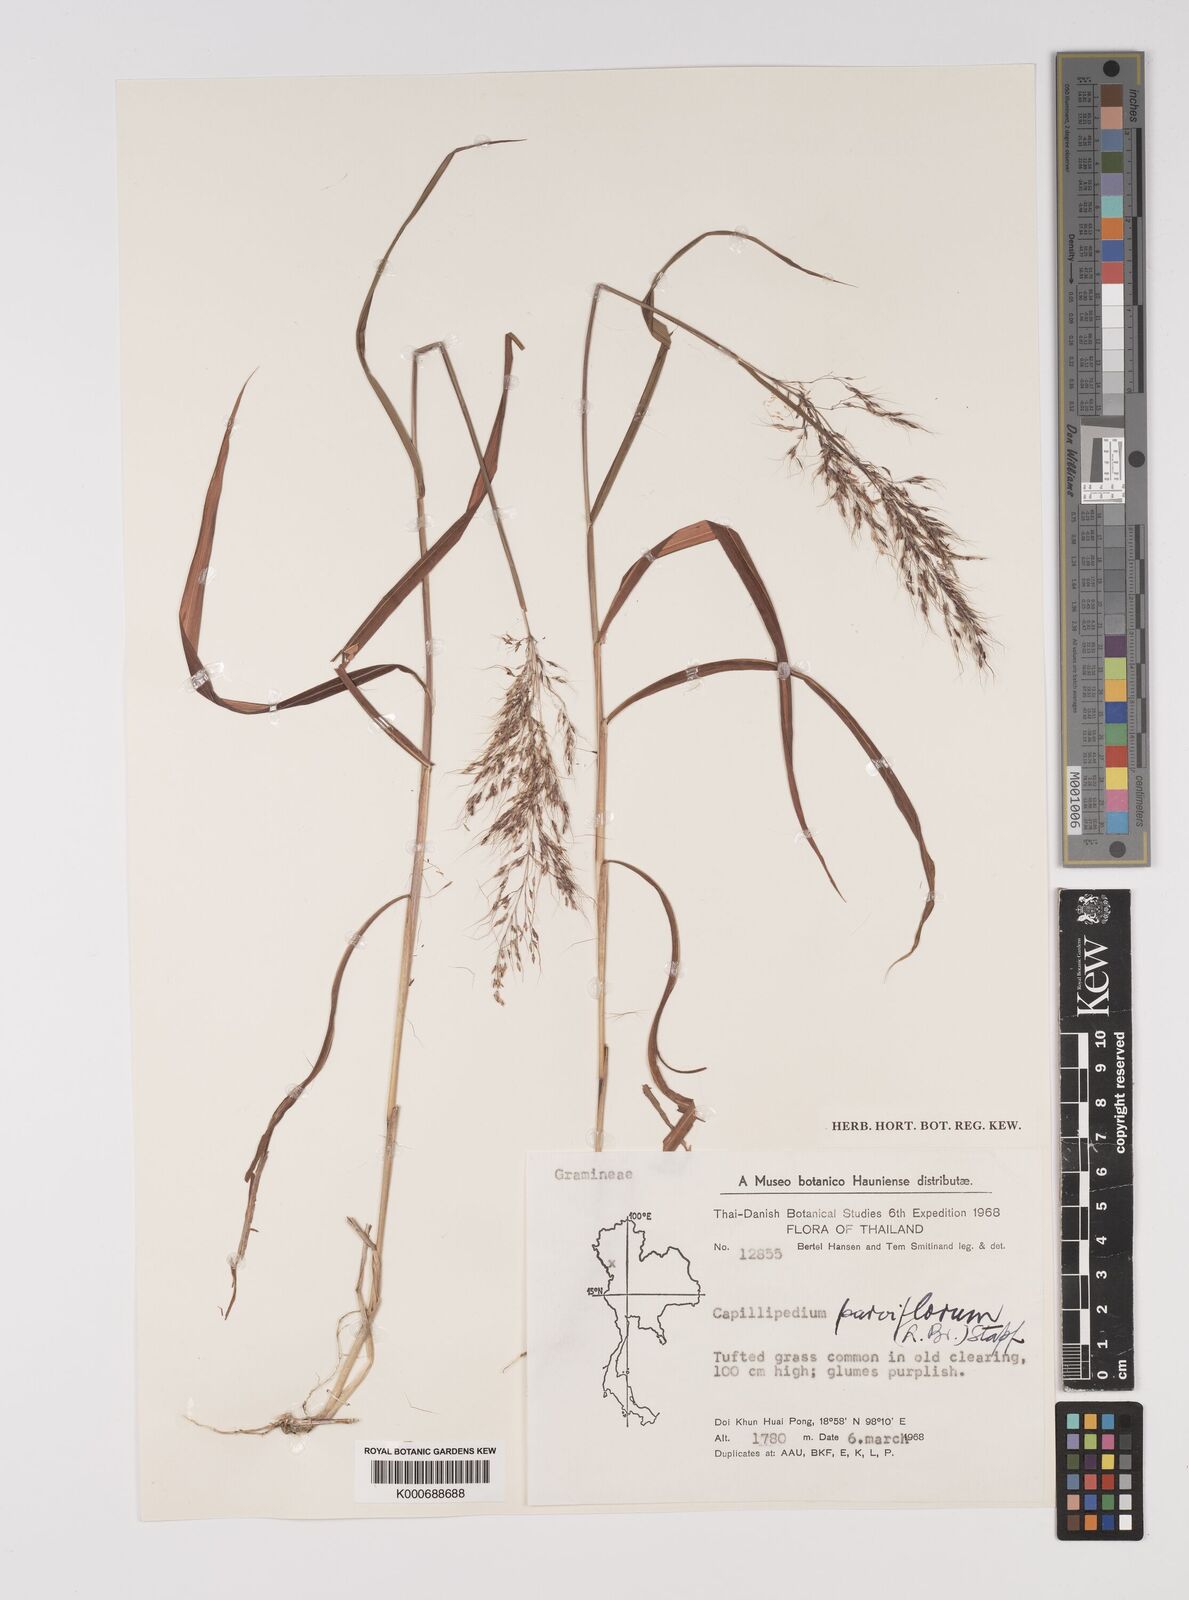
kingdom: Plantae
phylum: Tracheophyta
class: Liliopsida
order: Poales
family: Poaceae
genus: Capillipedium
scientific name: Capillipedium parviflorum
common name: Golden-beard
